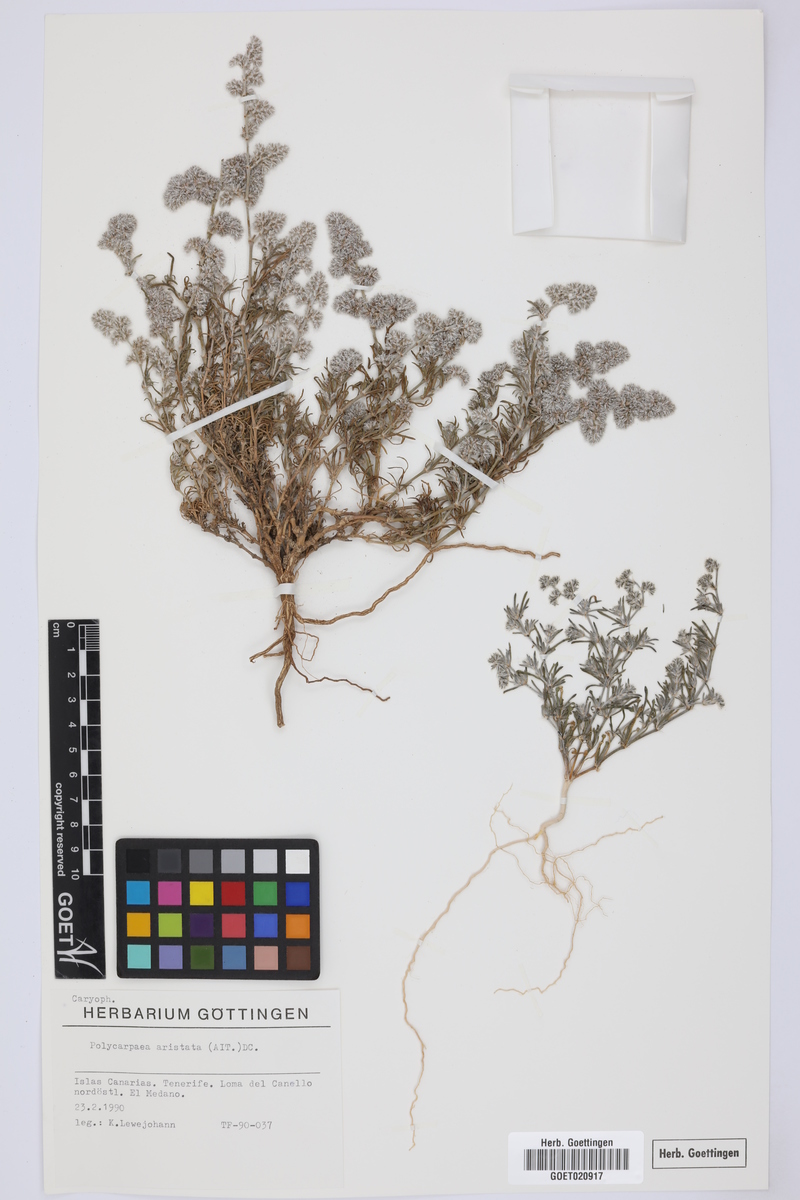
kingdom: Plantae
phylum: Tracheophyta
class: Magnoliopsida
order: Caryophyllales
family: Caryophyllaceae
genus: Polycarpaea
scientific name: Polycarpaea aristata
